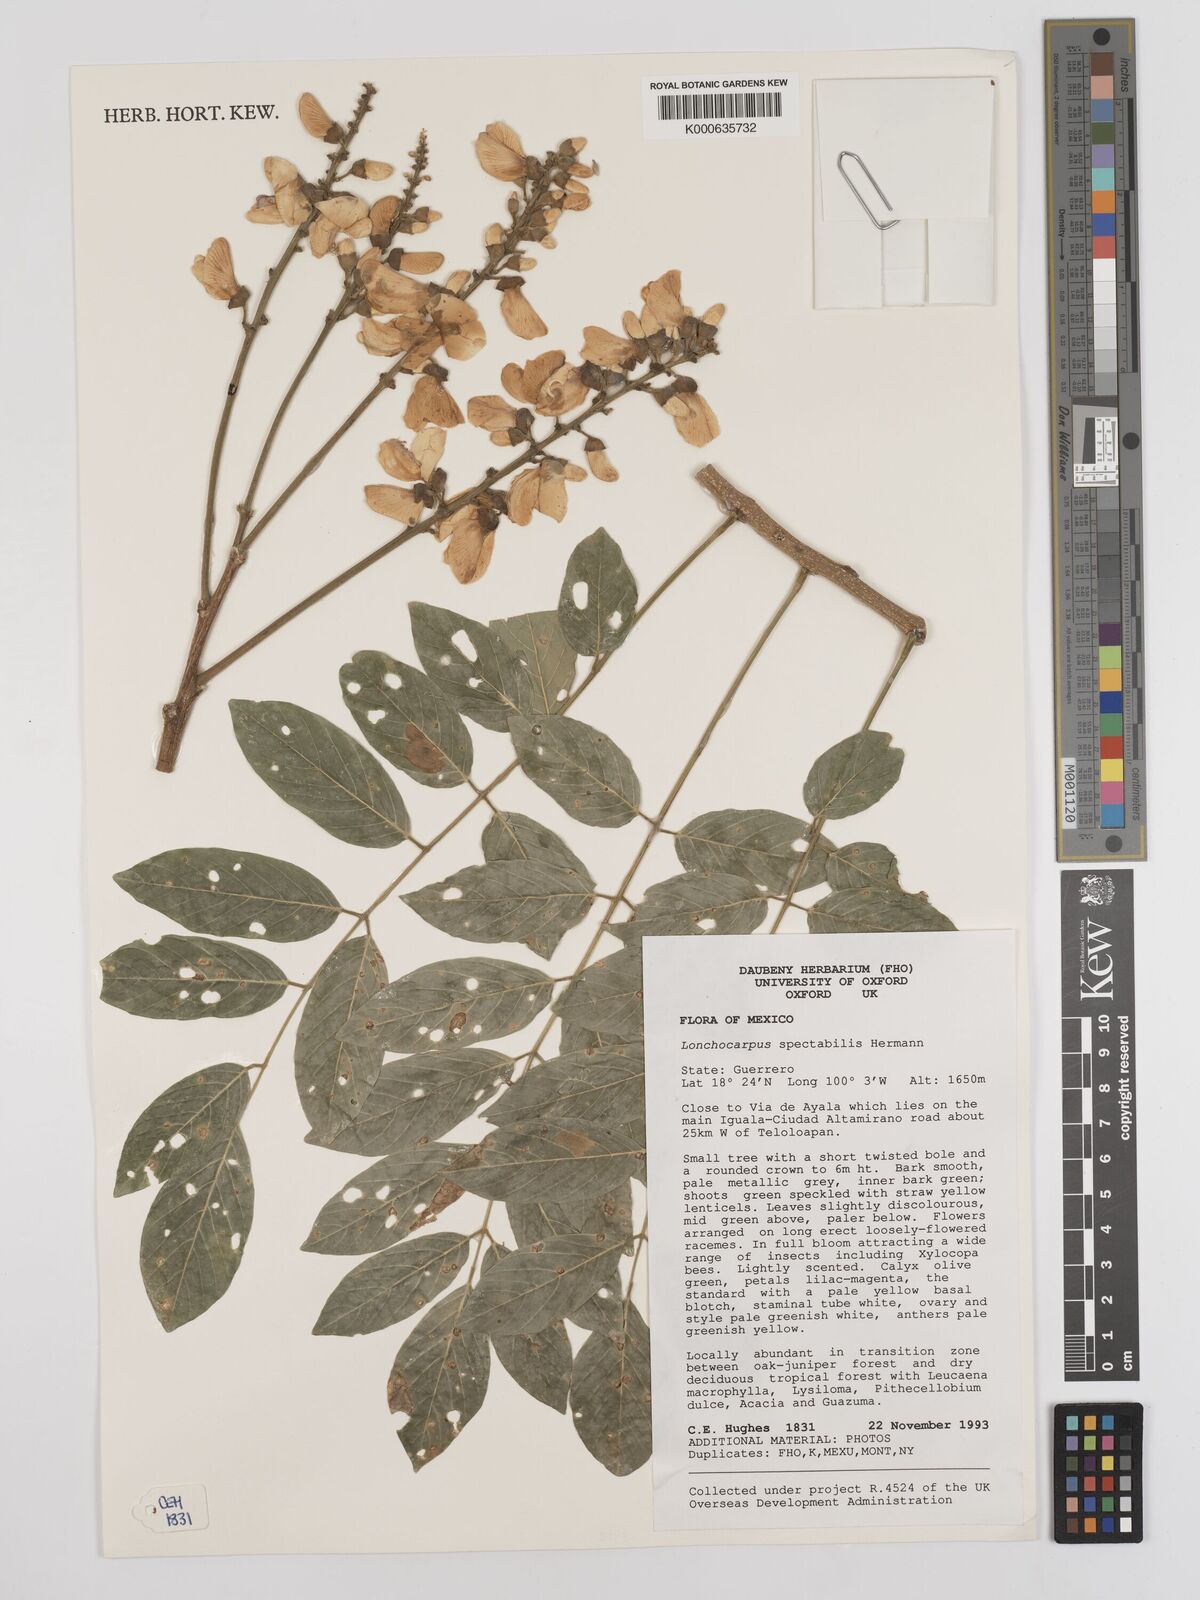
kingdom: Plantae
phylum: Tracheophyta
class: Magnoliopsida
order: Fabales
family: Fabaceae
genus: Lonchocarpus
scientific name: Lonchocarpus spectabilis
